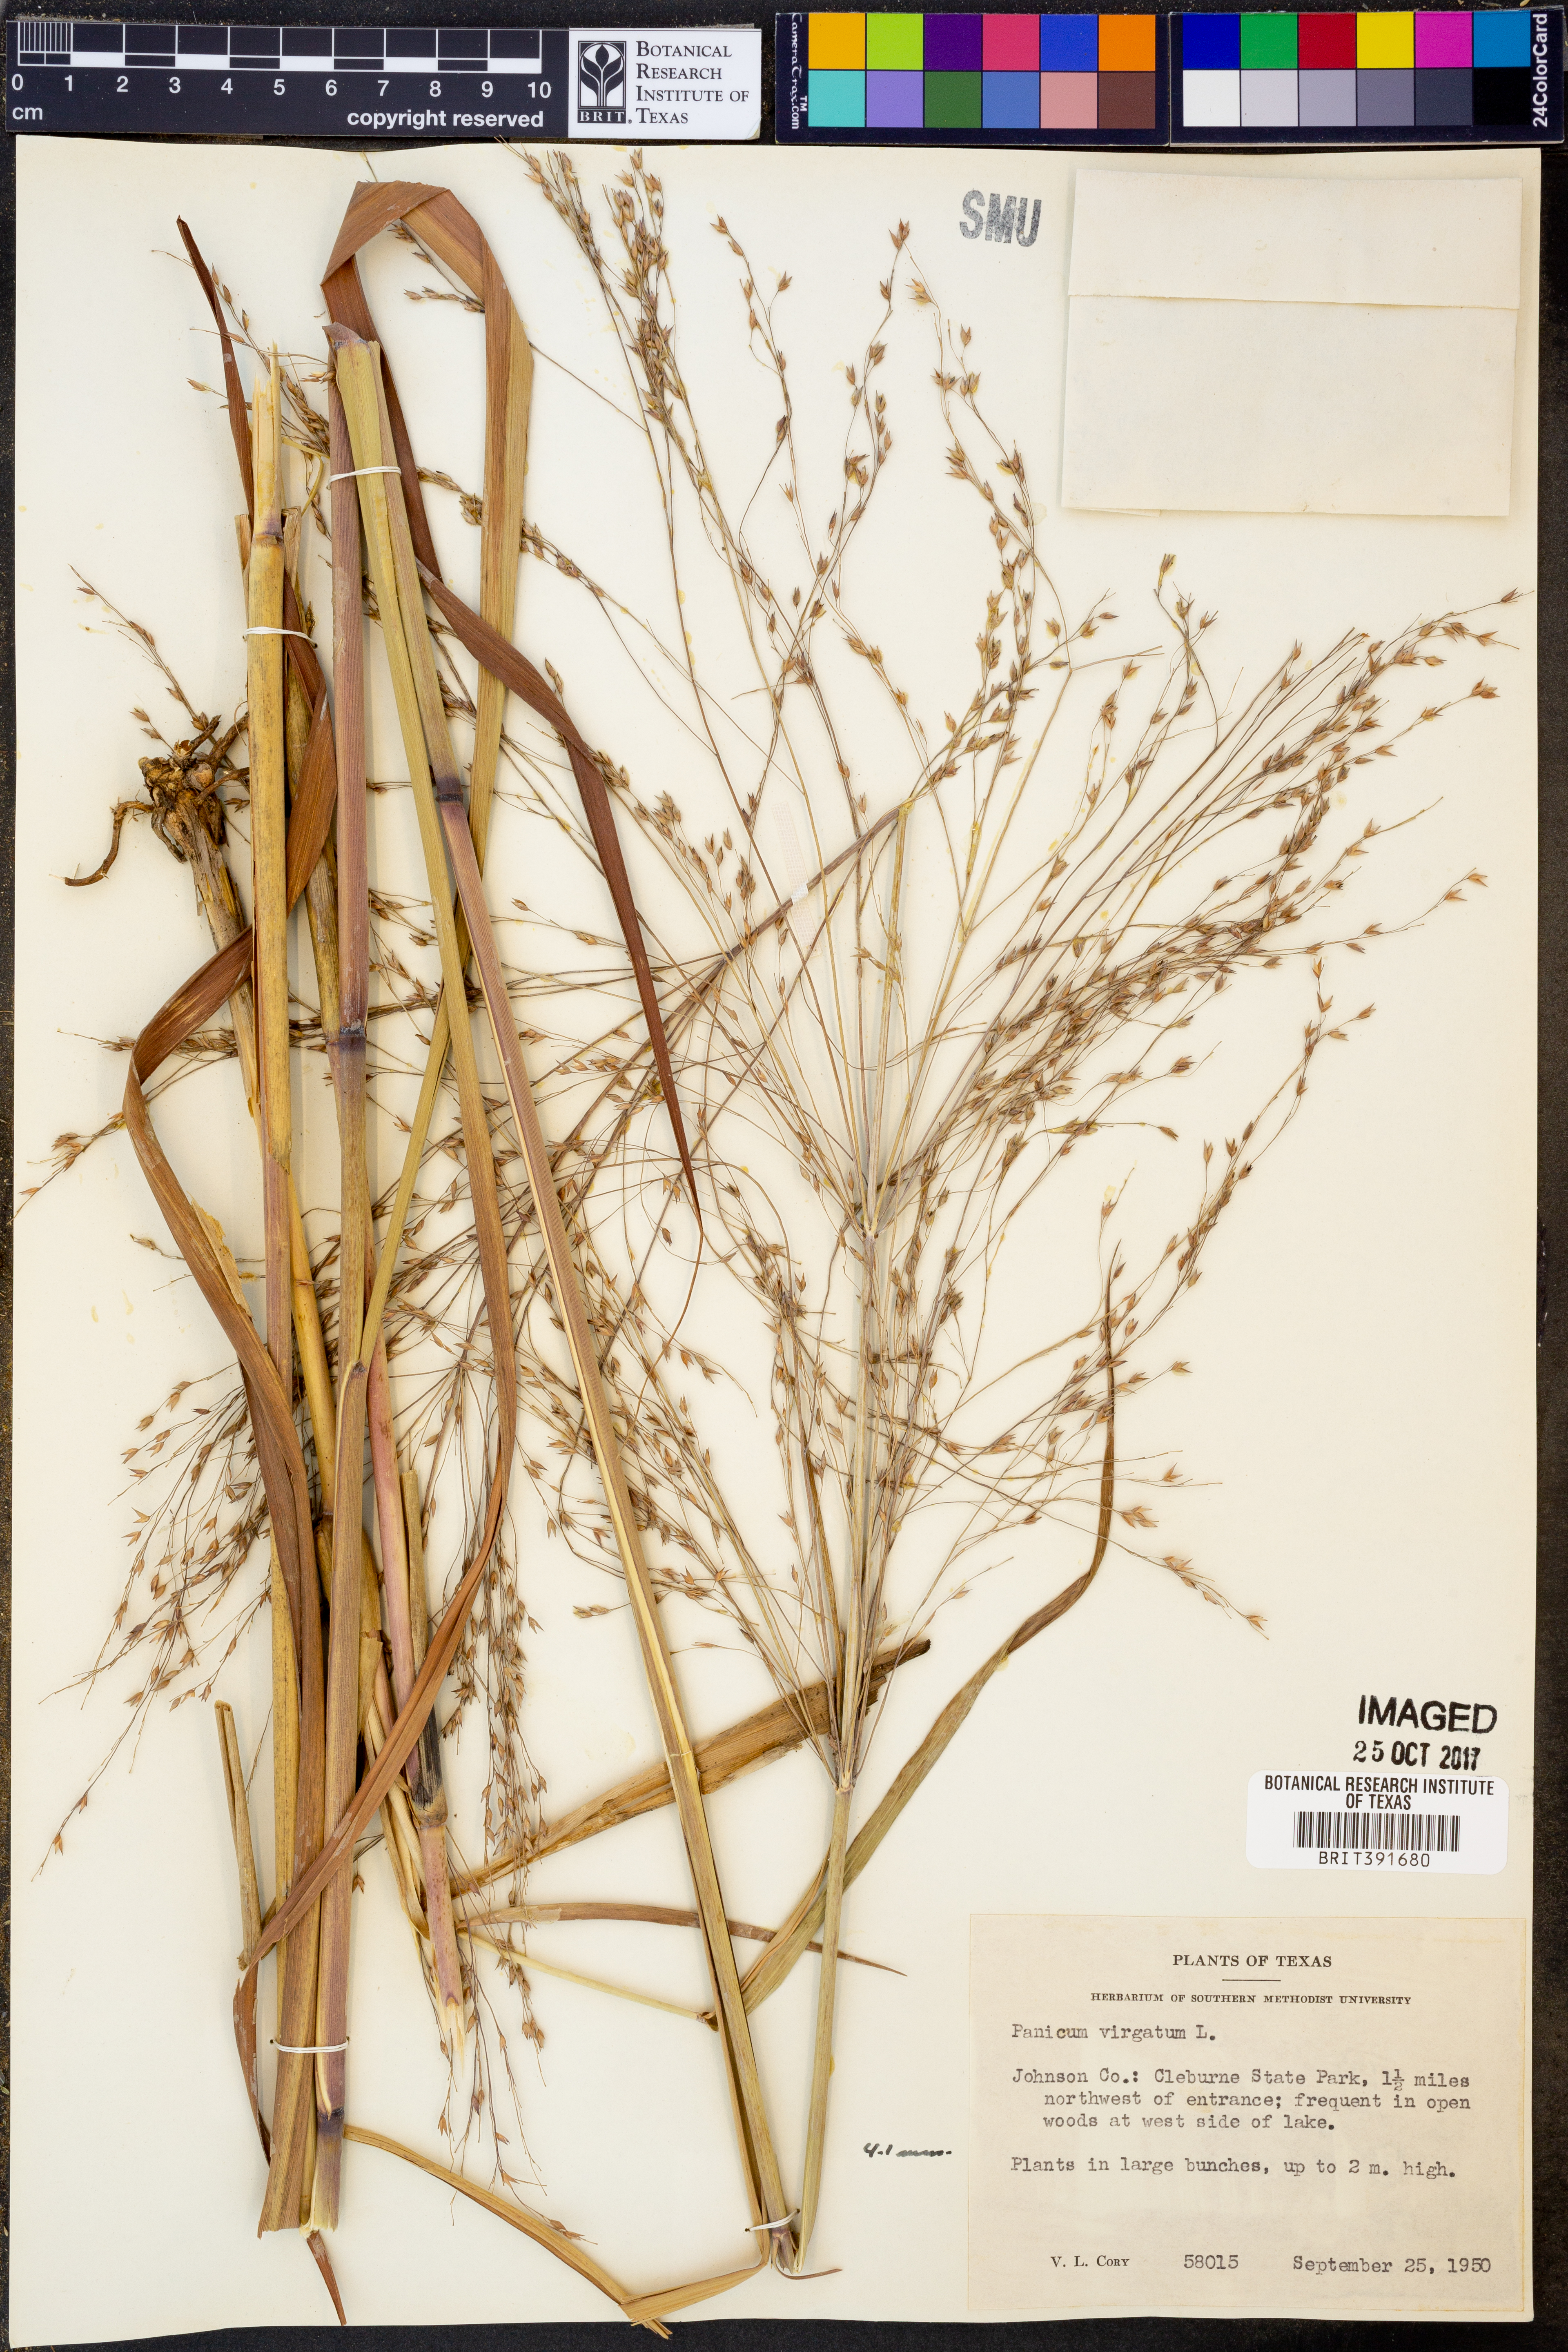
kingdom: Plantae
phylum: Tracheophyta
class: Liliopsida
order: Poales
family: Poaceae
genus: Panicum
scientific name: Panicum virgatum
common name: Switchgrass
